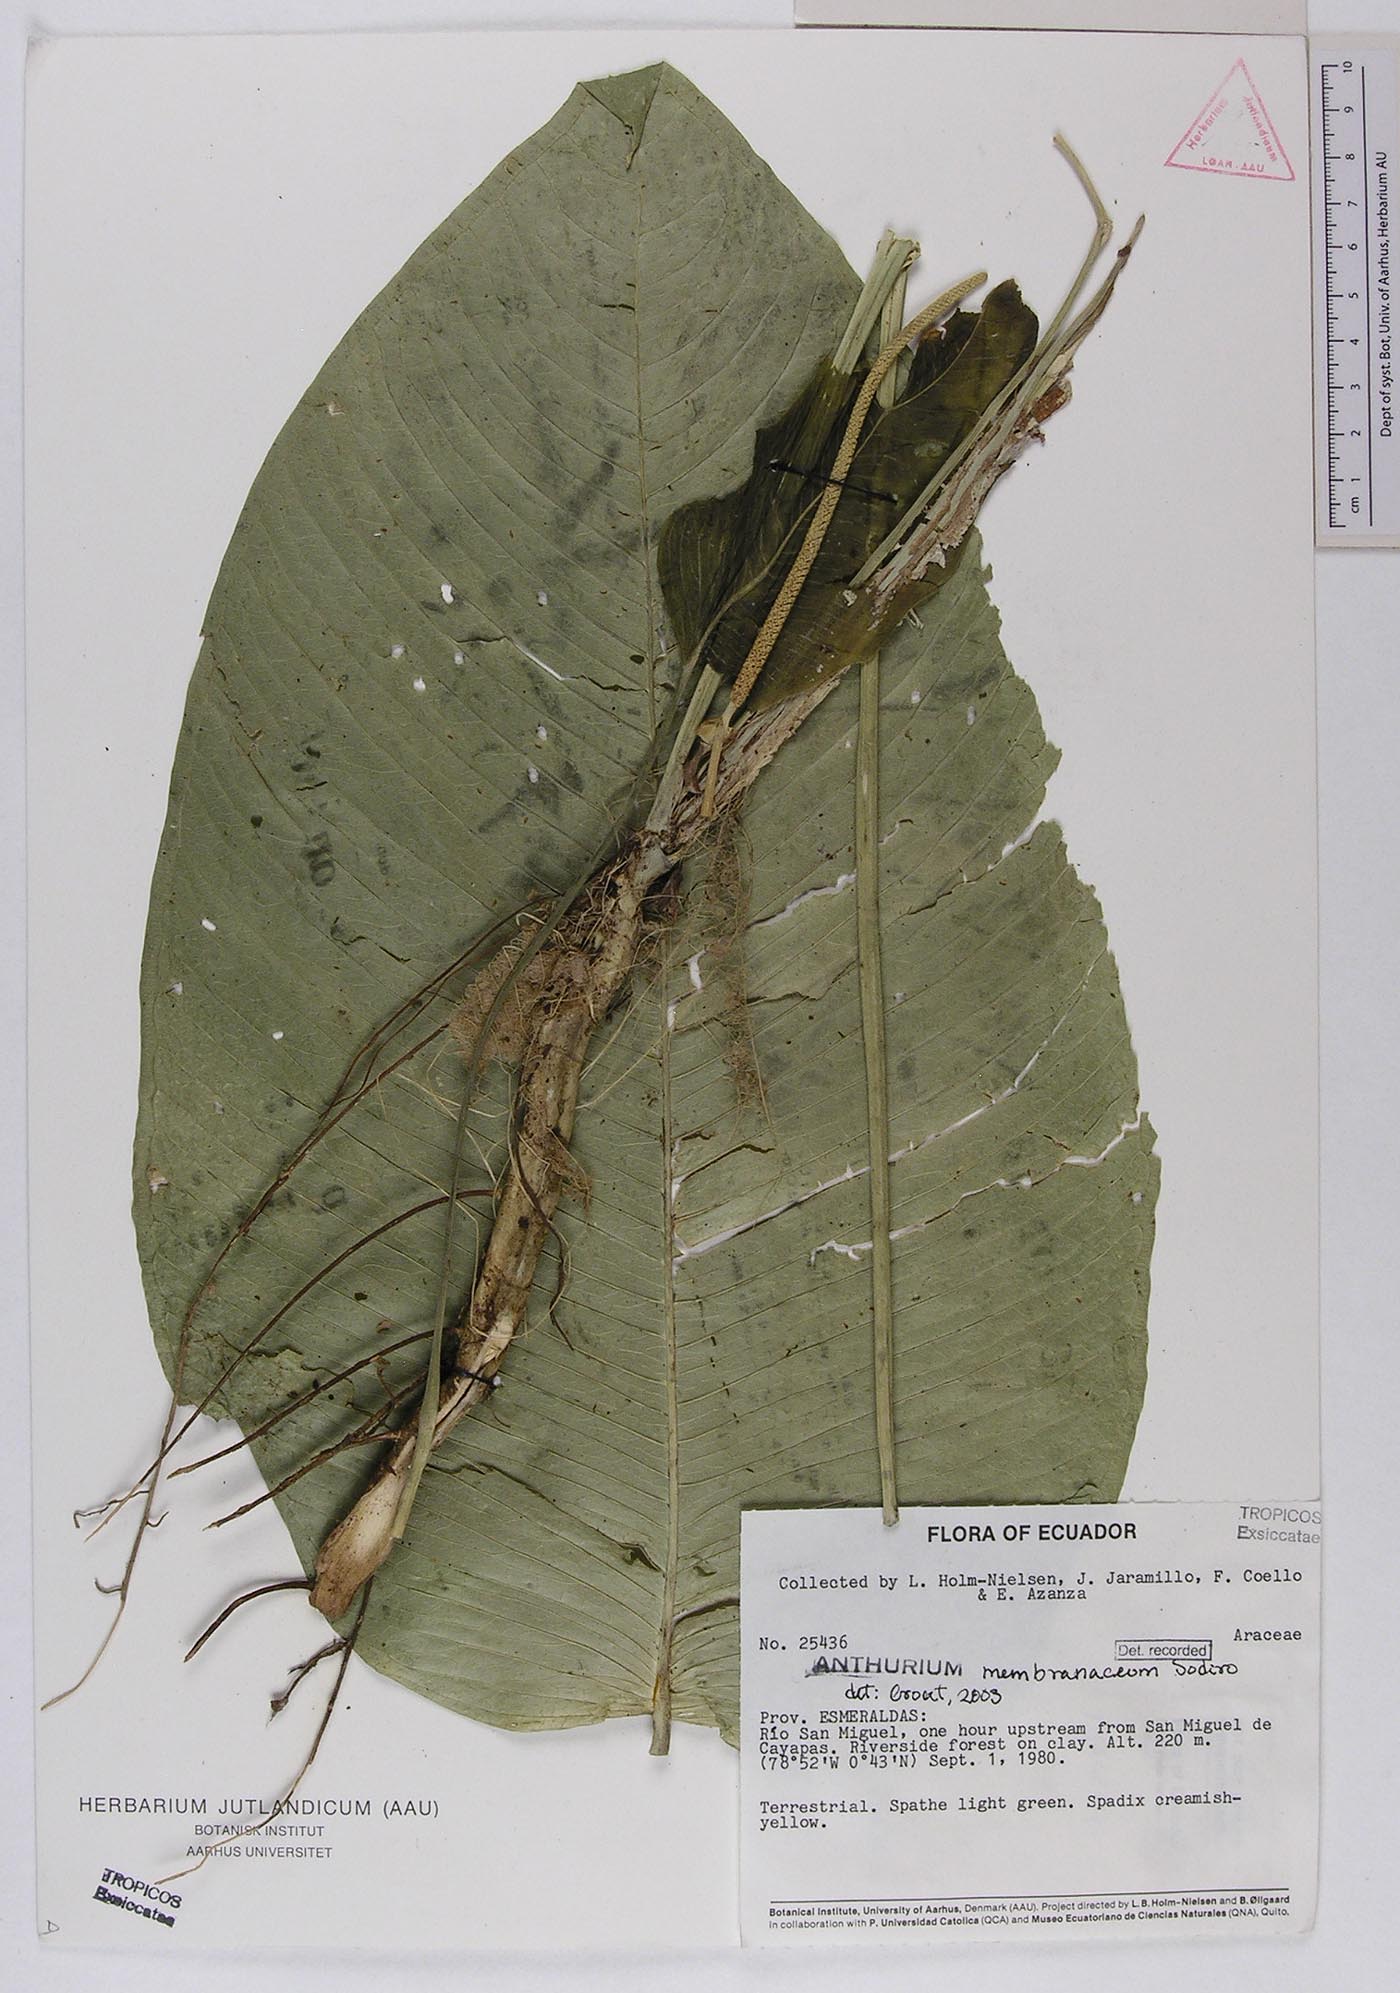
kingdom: Plantae
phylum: Tracheophyta
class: Liliopsida
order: Alismatales
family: Araceae
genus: Anthurium
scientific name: Anthurium membranaceum
